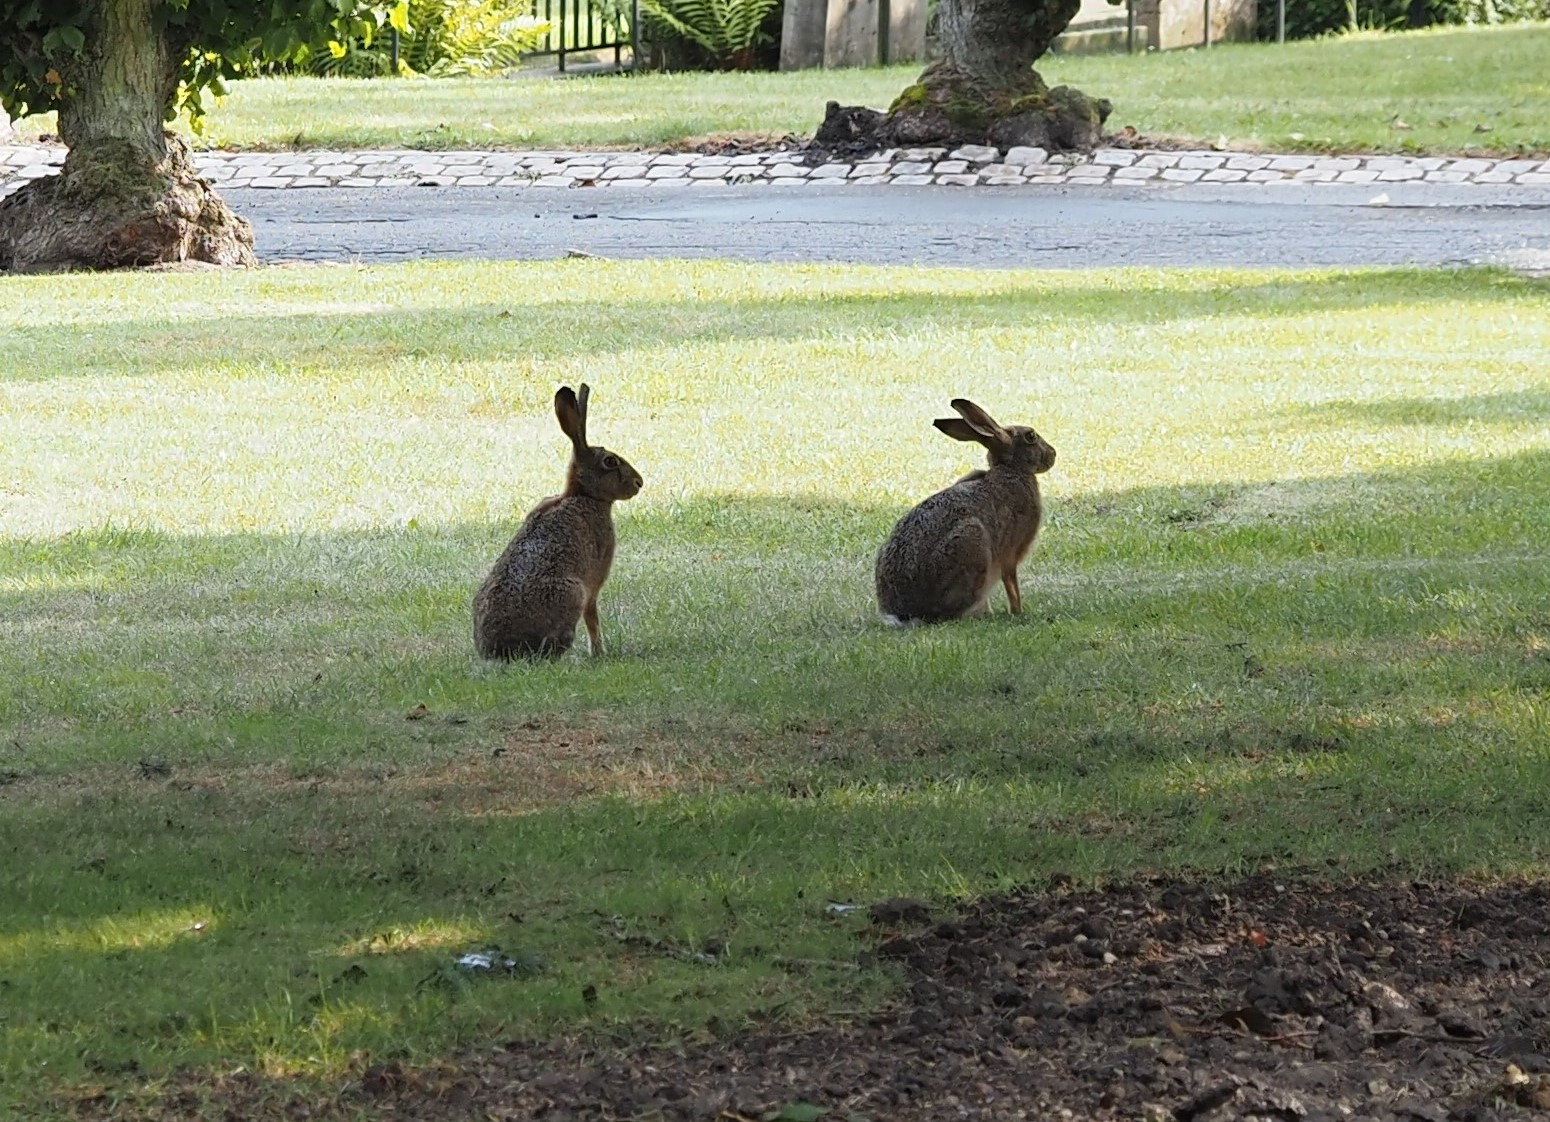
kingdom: Animalia
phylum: Chordata
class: Mammalia
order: Lagomorpha
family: Leporidae
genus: Lepus
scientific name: Lepus europaeus
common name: Hare
